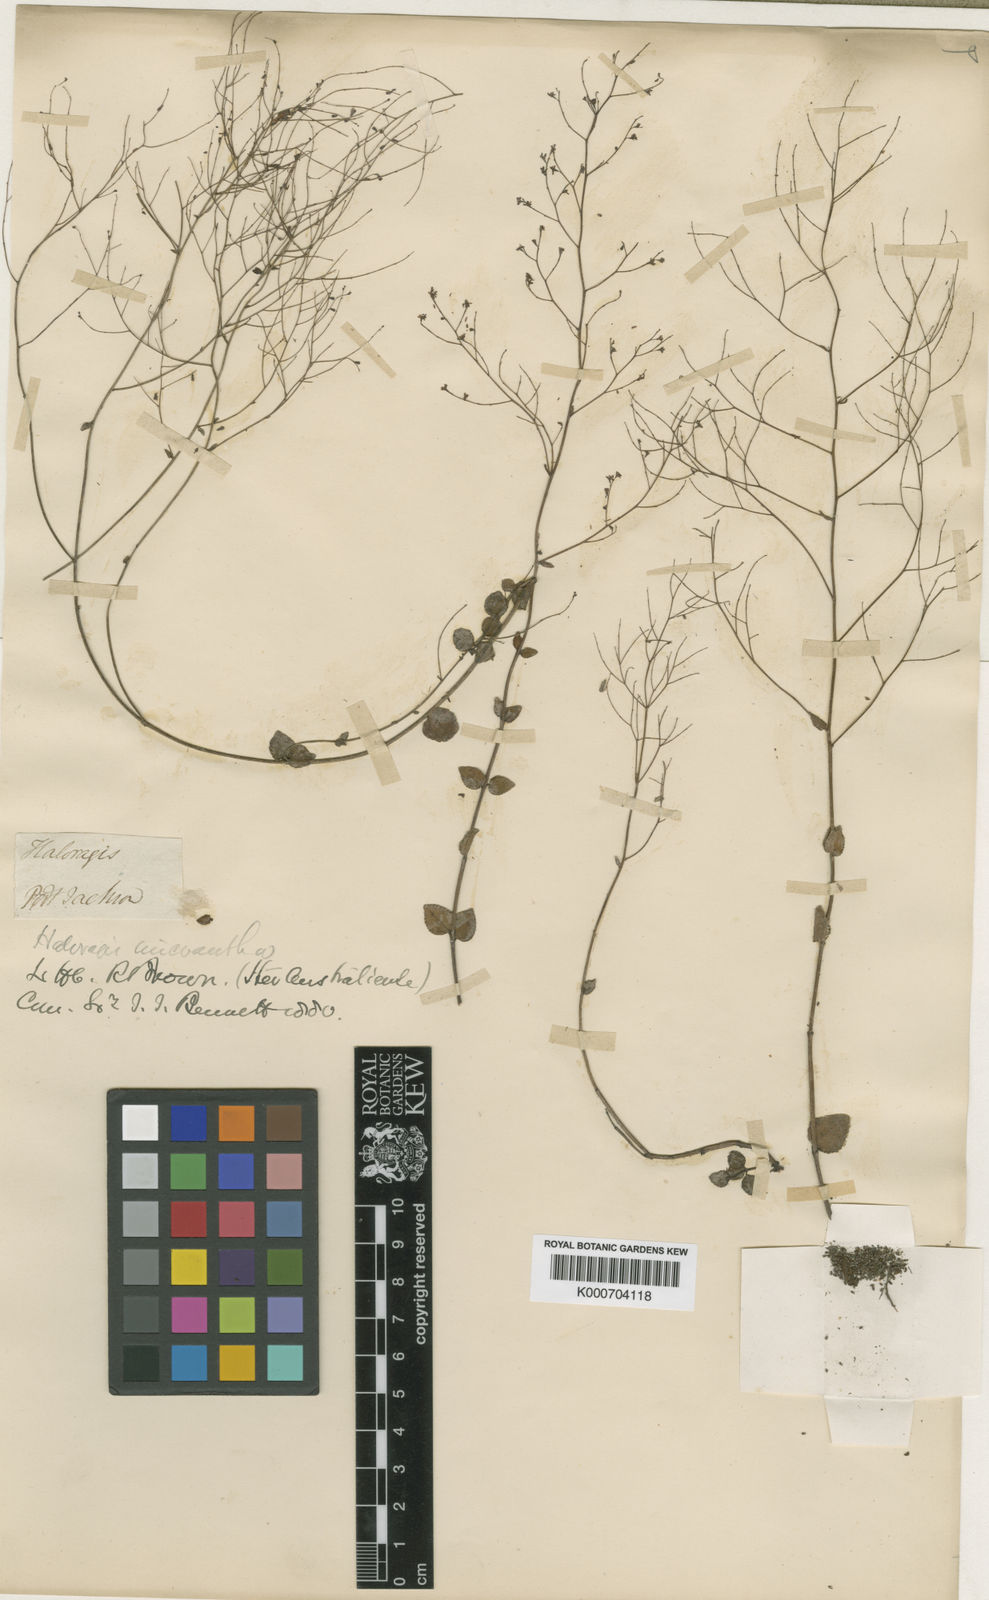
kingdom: Plantae
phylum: Tracheophyta
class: Magnoliopsida
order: Saxifragales
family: Haloragaceae
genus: Gonocarpus
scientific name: Gonocarpus micranthus
